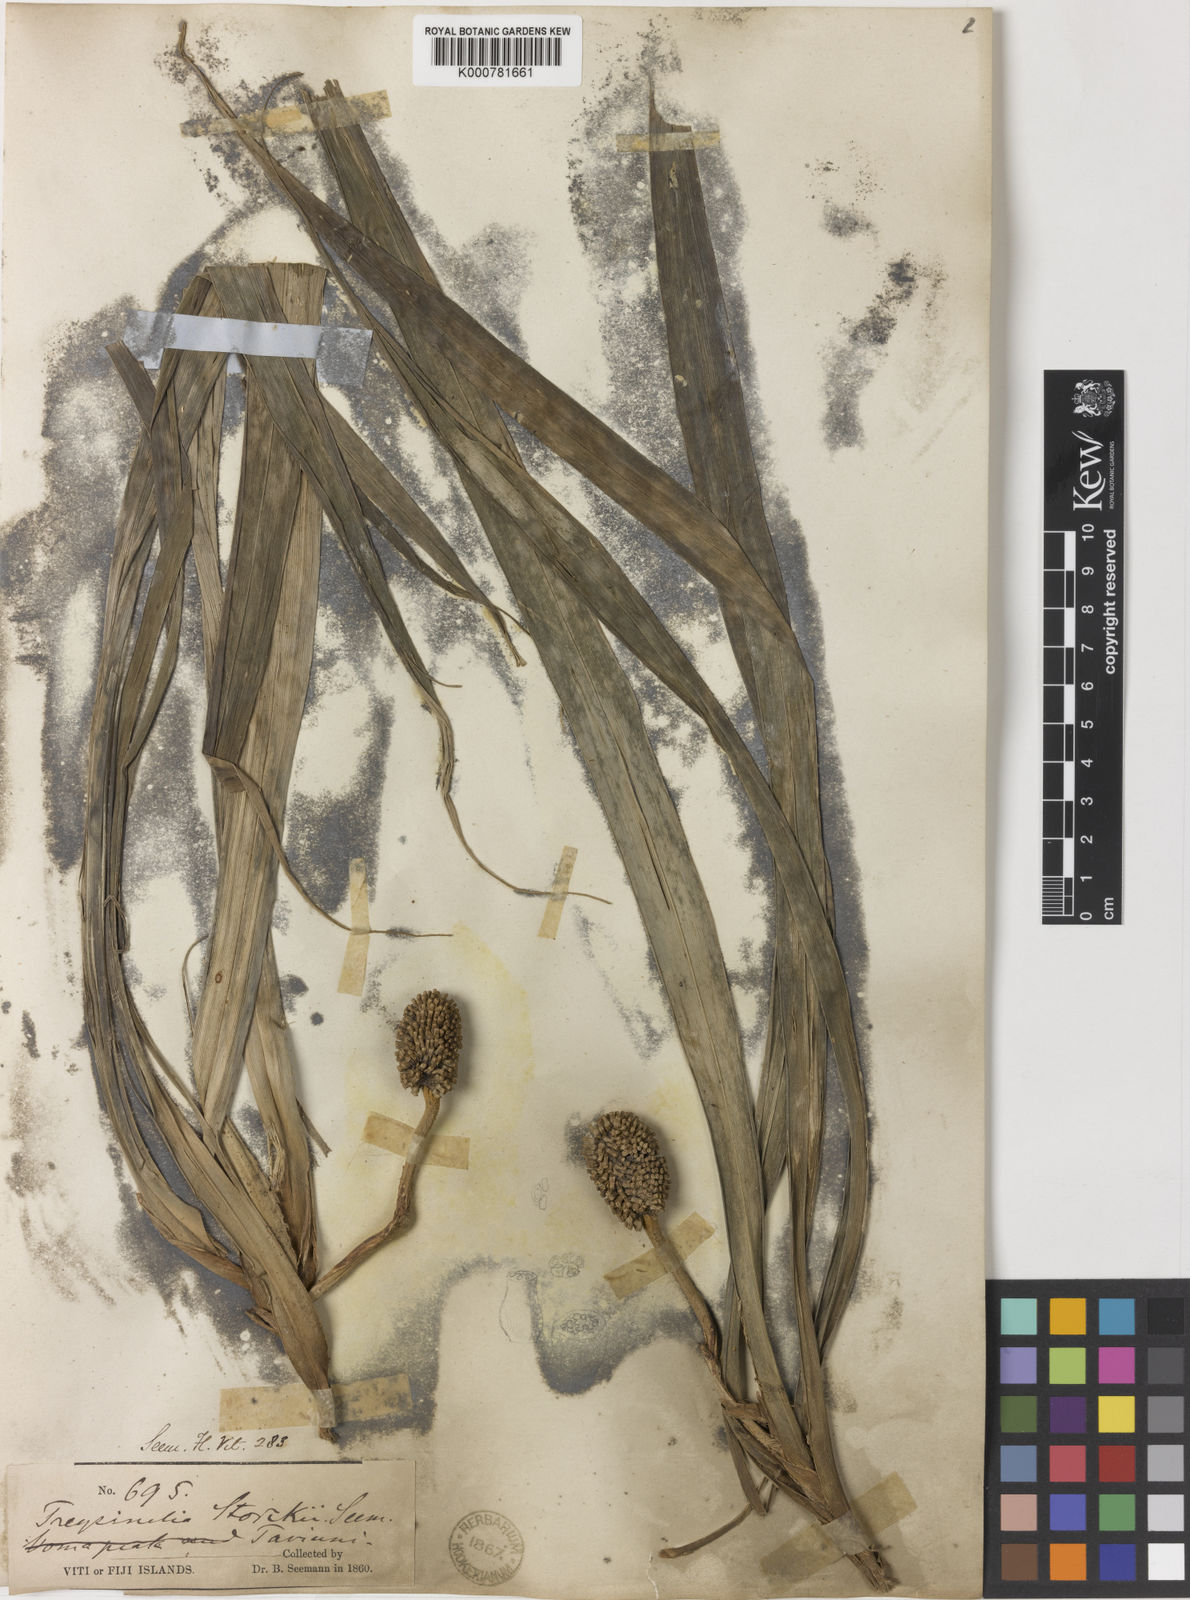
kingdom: Plantae
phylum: Tracheophyta
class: Liliopsida
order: Pandanales
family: Pandanaceae
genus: Freycinetia
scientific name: Freycinetia storckii
